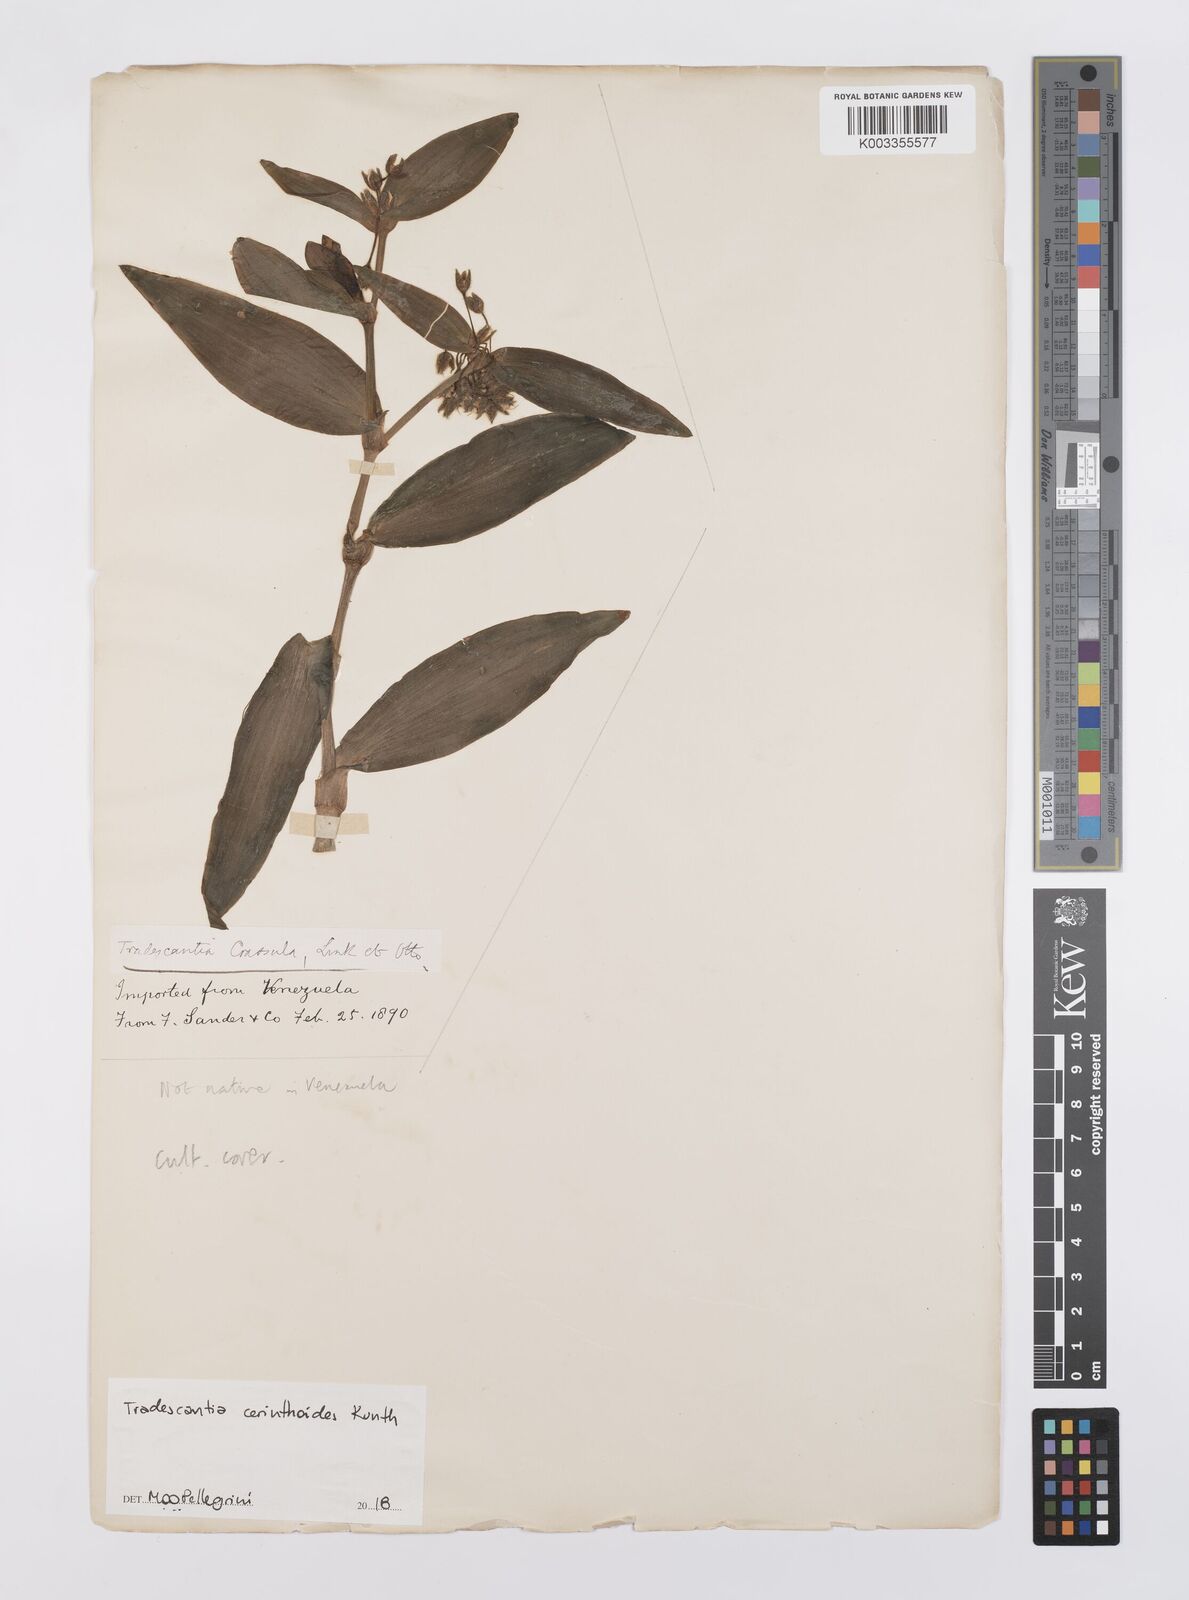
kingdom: Plantae
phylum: Tracheophyta
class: Liliopsida
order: Commelinales
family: Commelinaceae
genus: Tradescantia
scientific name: Tradescantia cerinthoides
